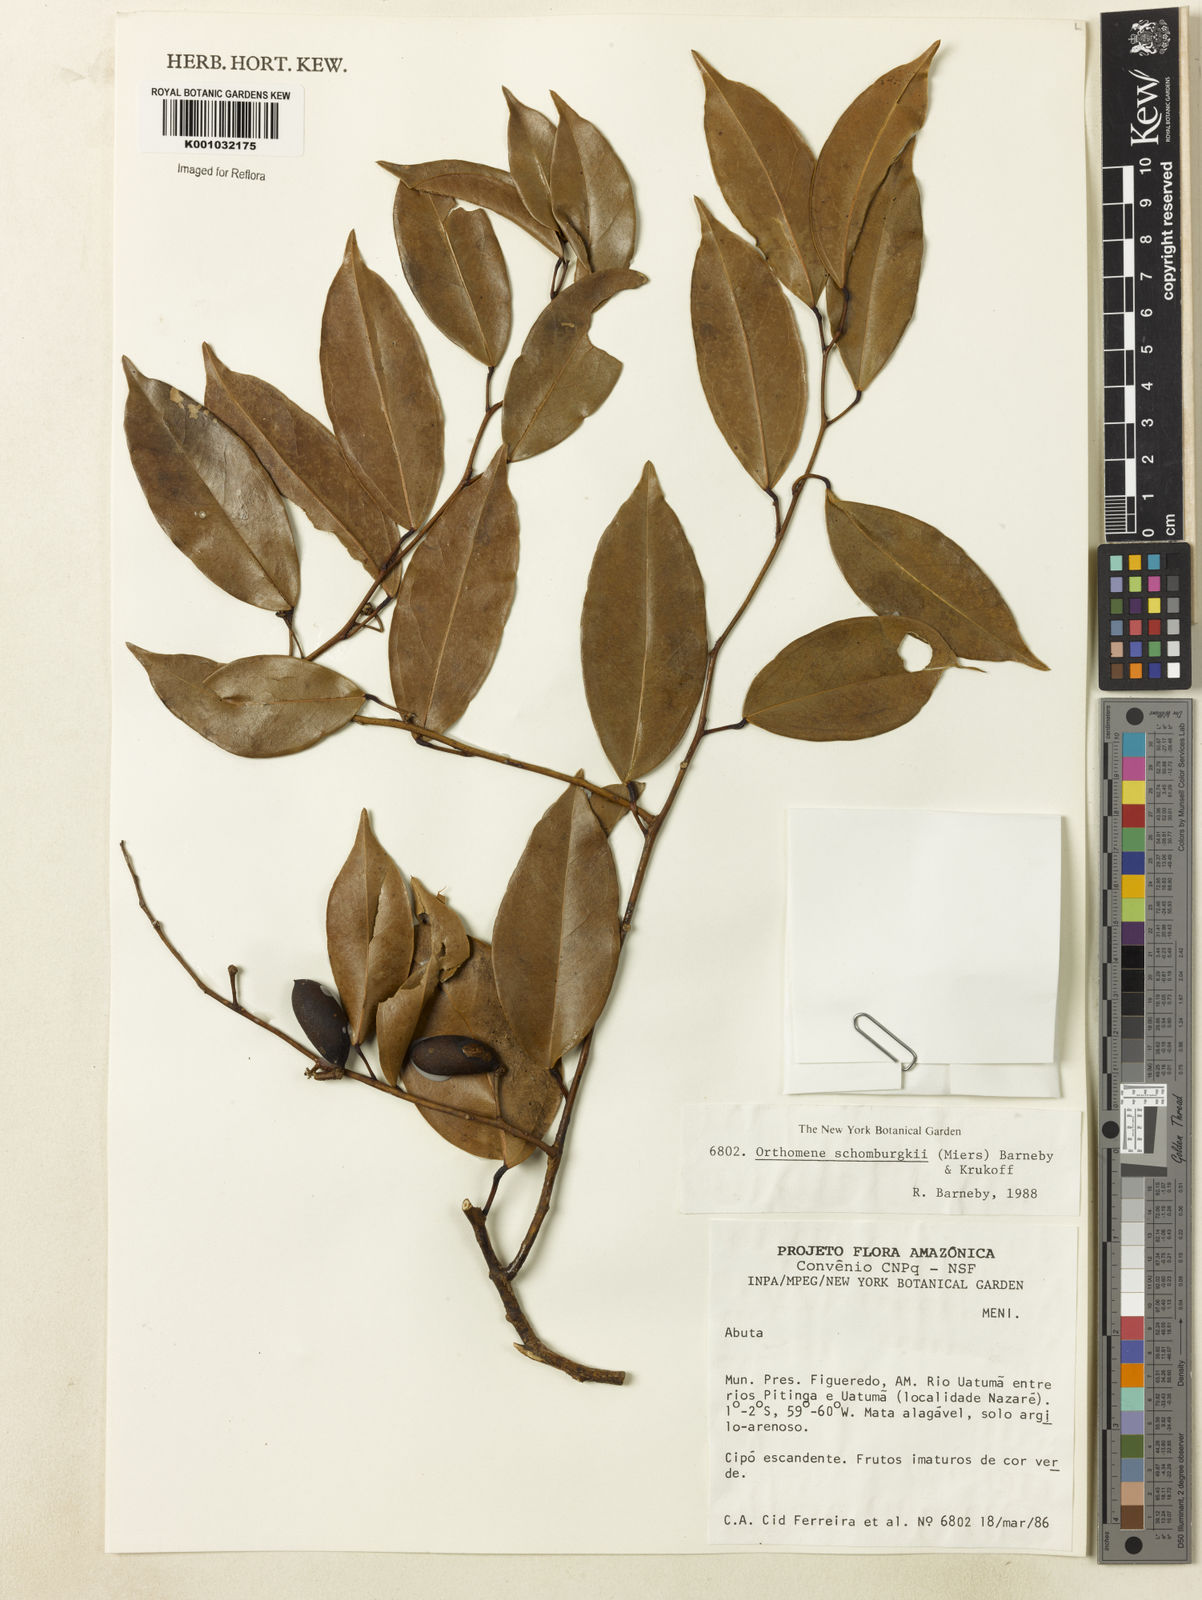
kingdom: Plantae
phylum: Tracheophyta
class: Magnoliopsida
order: Ranunculales
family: Menispermaceae
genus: Orthomene
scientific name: Orthomene schomburgkii
